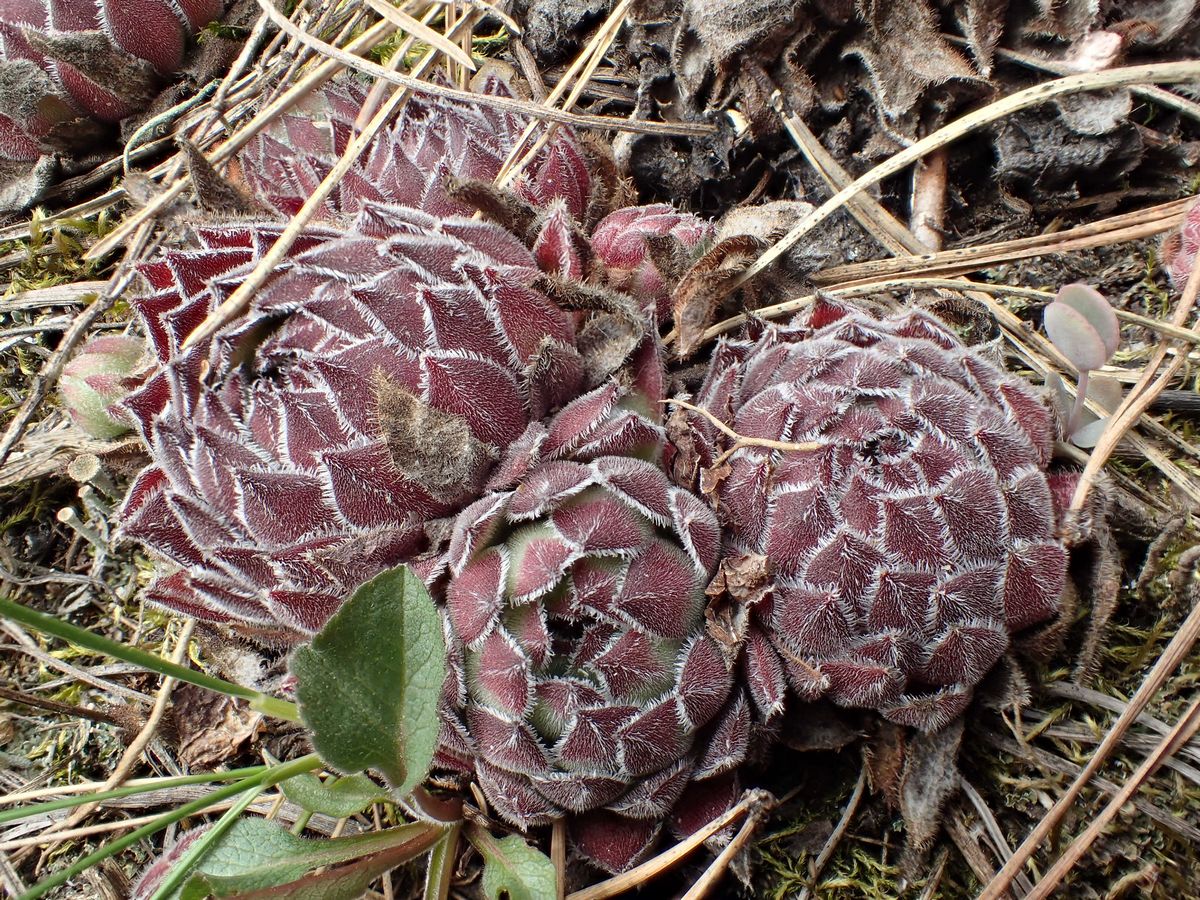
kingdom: Plantae
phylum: Tracheophyta
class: Magnoliopsida
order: Saxifragales
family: Crassulaceae
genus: Sempervivum
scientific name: Sempervivum ruthenicum
